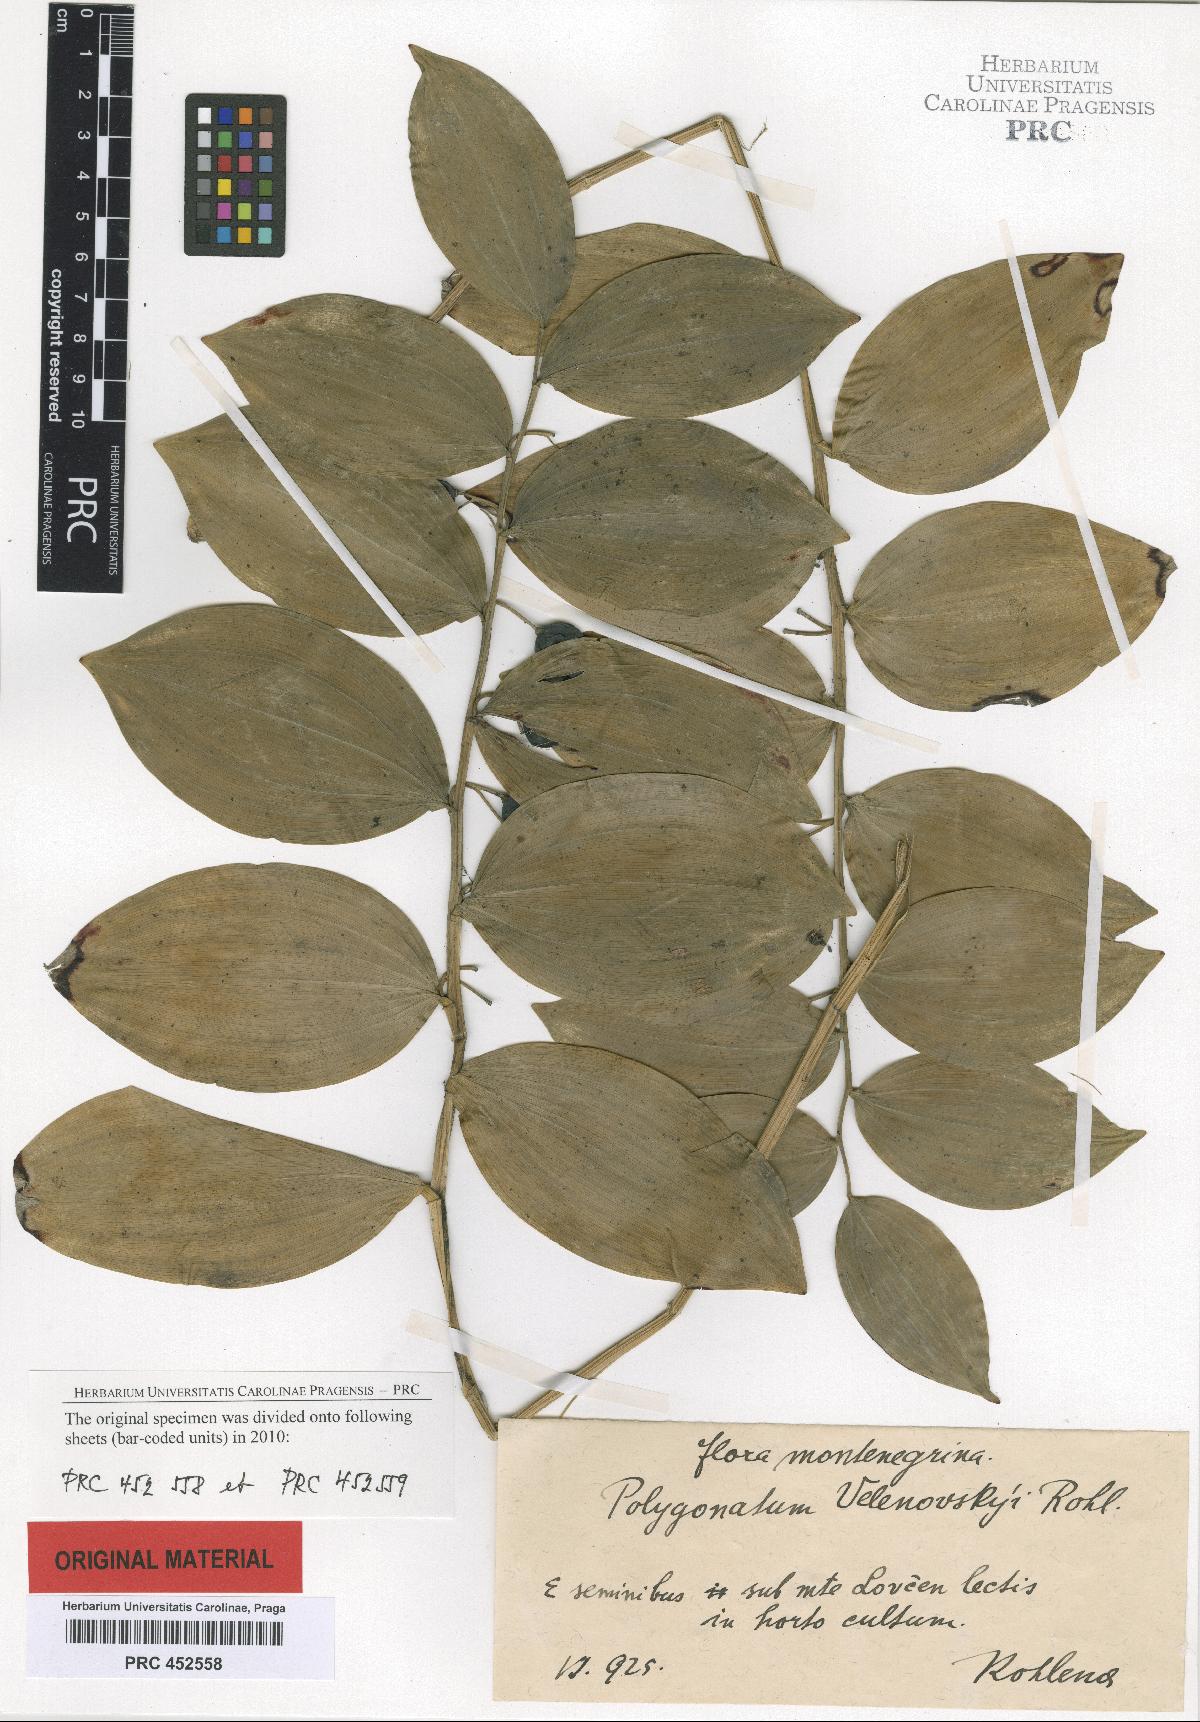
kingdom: Plantae
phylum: Tracheophyta
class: Liliopsida
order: Asparagales
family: Asparagaceae
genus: Polygonatum
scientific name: Polygonatum velenovskyi
